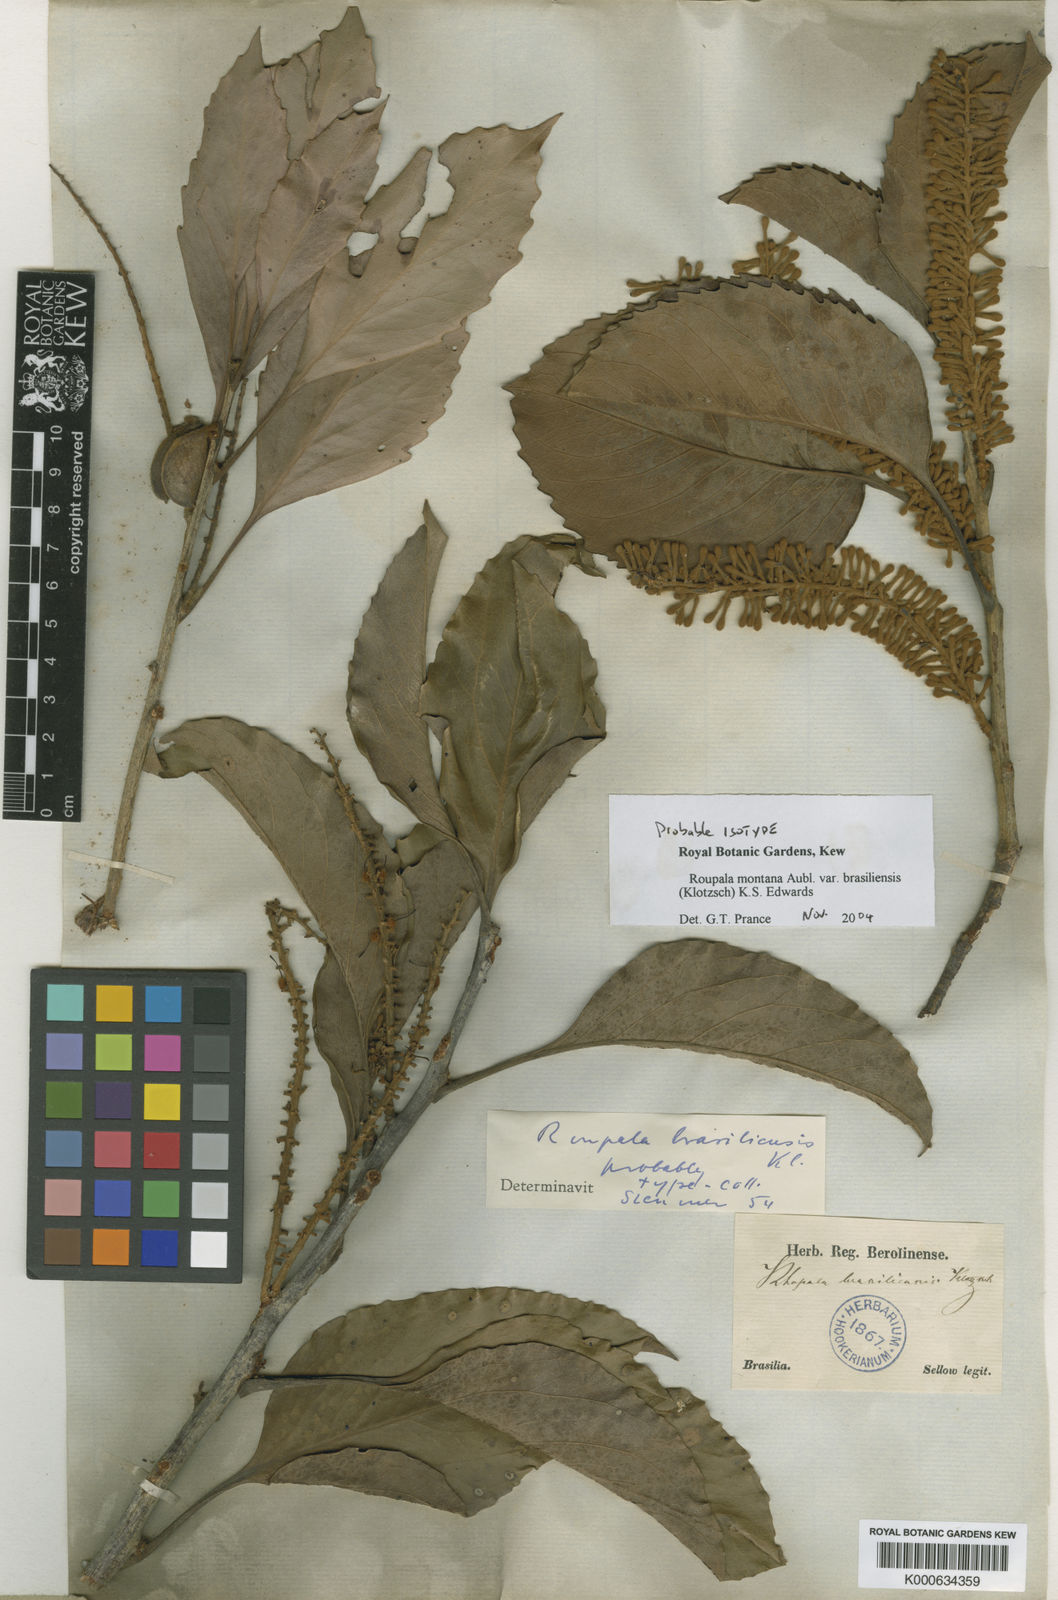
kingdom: Plantae
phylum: Tracheophyta
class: Magnoliopsida
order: Proteales
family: Proteaceae
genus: Roupala
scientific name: Roupala montana
